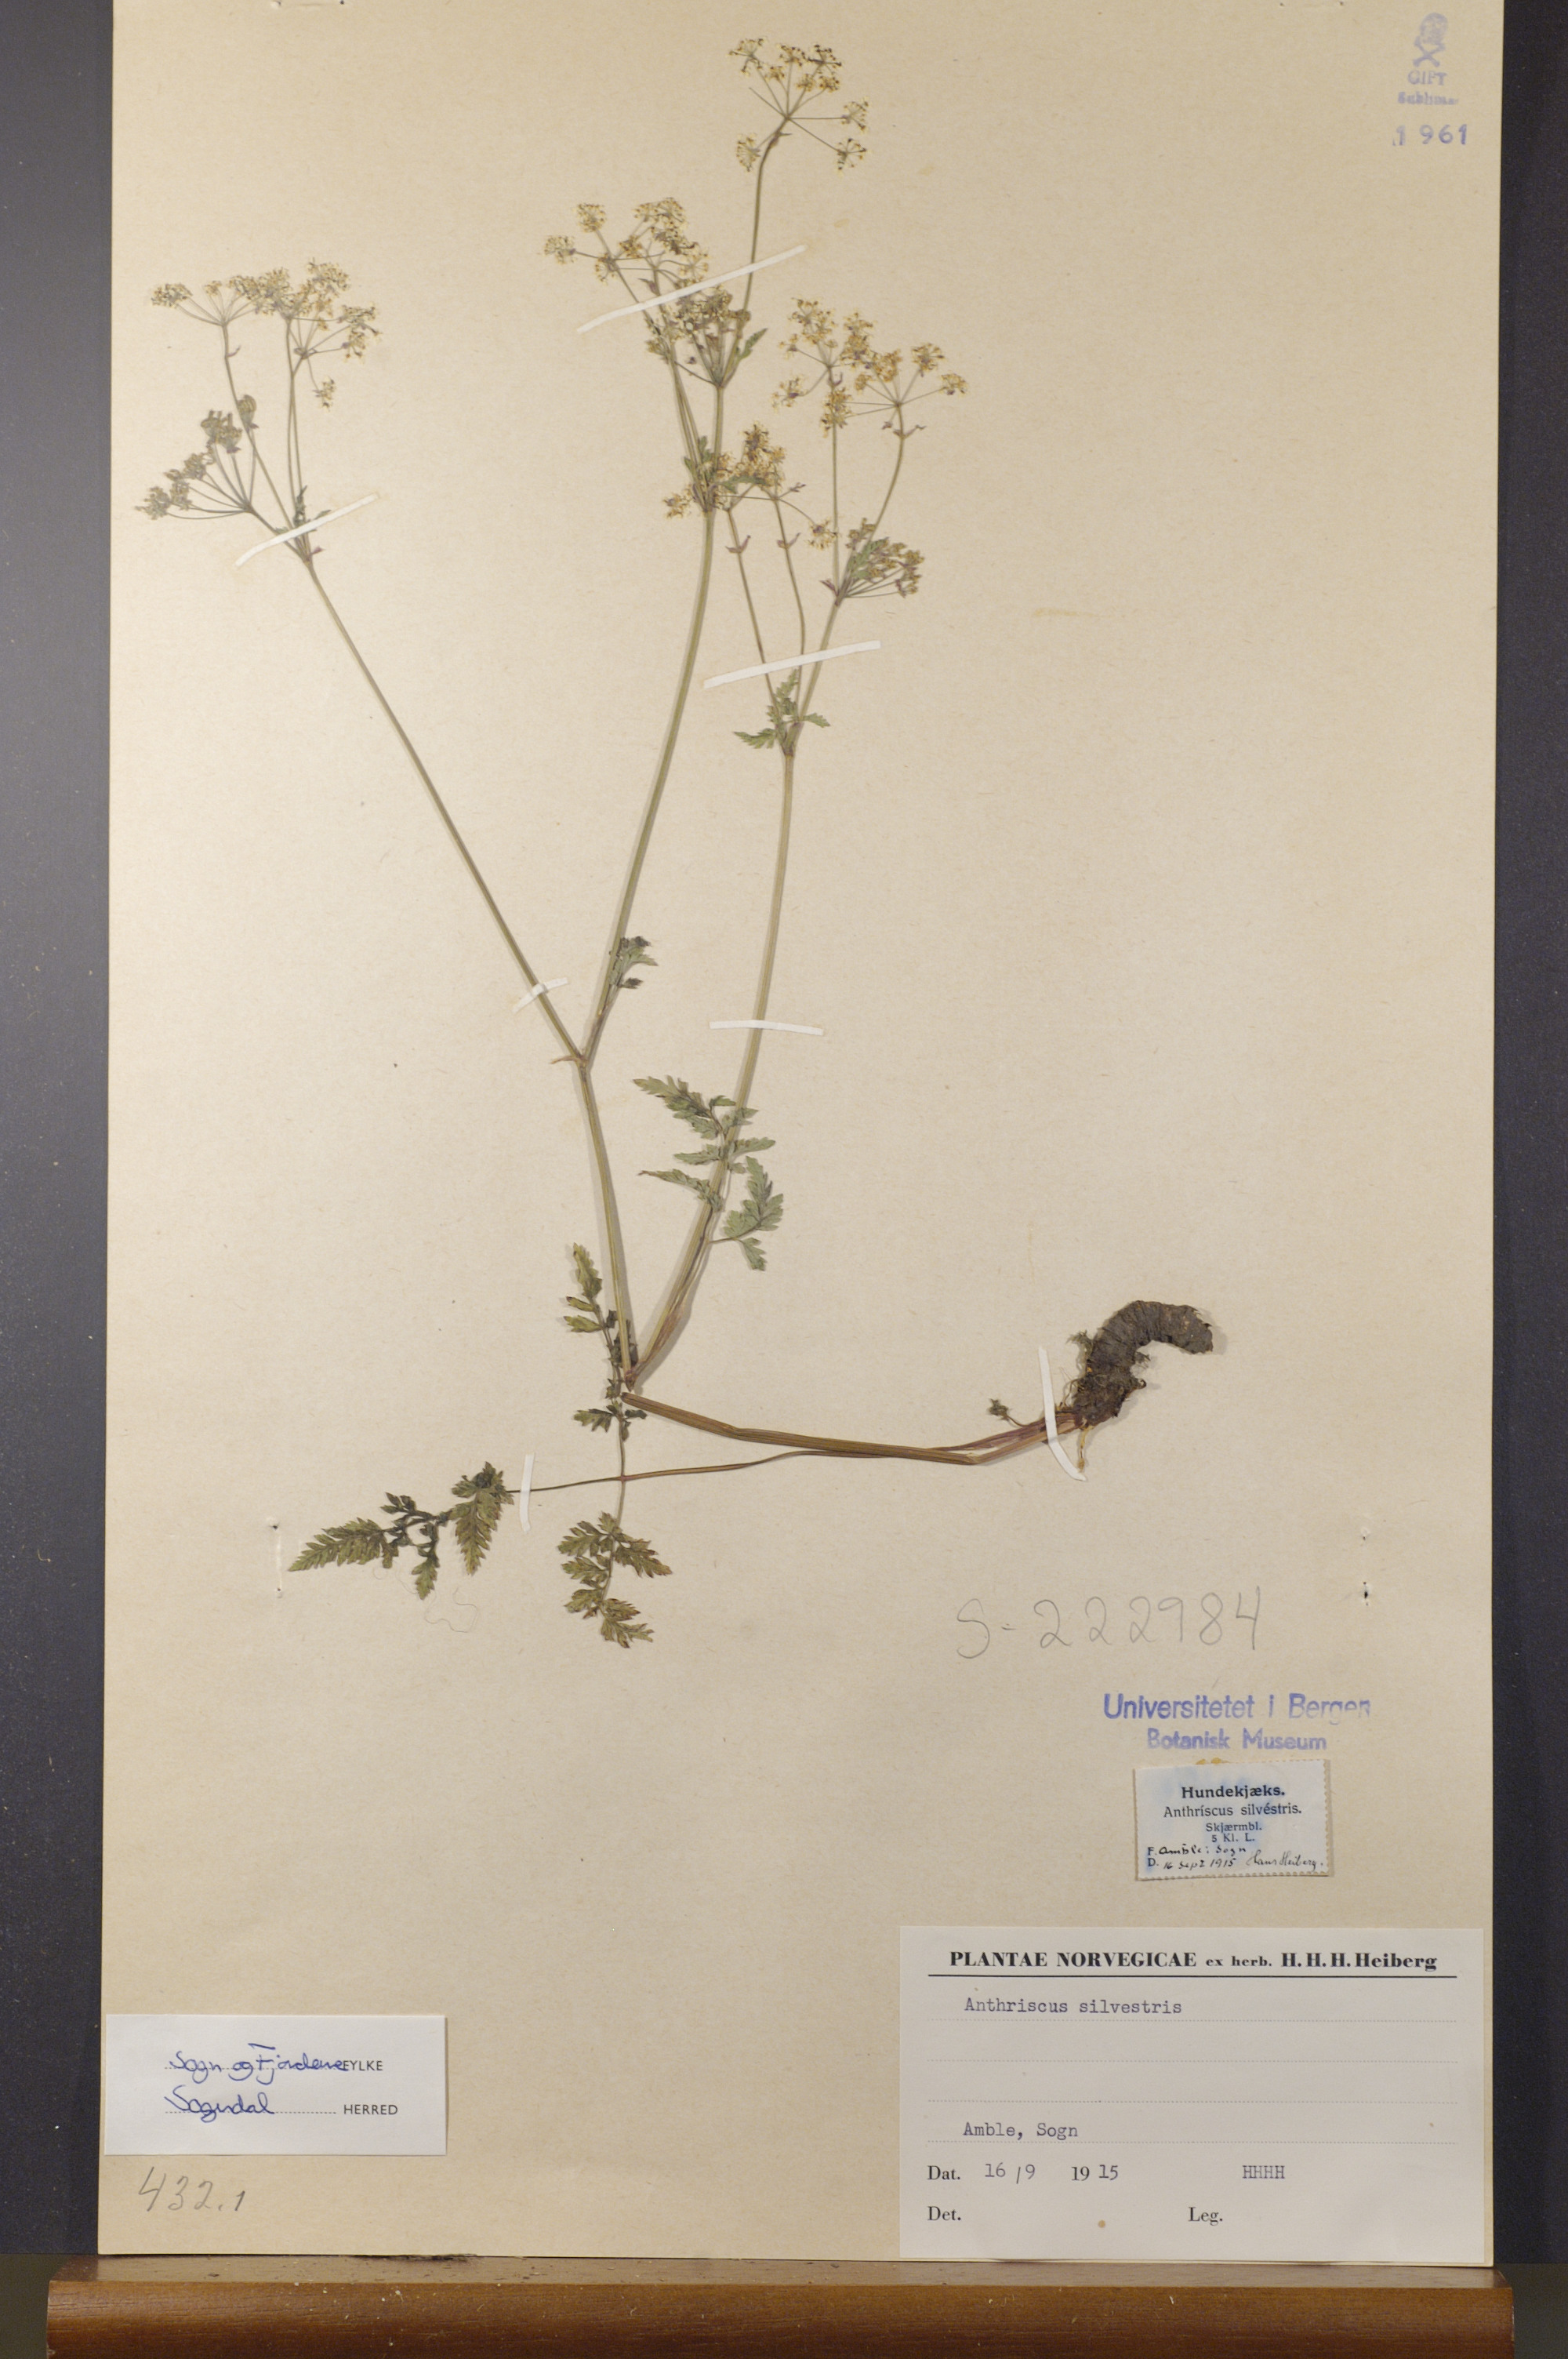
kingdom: Plantae
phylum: Tracheophyta
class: Magnoliopsida
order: Apiales
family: Apiaceae
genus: Anthriscus
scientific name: Anthriscus sylvestris
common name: Cow parsley
